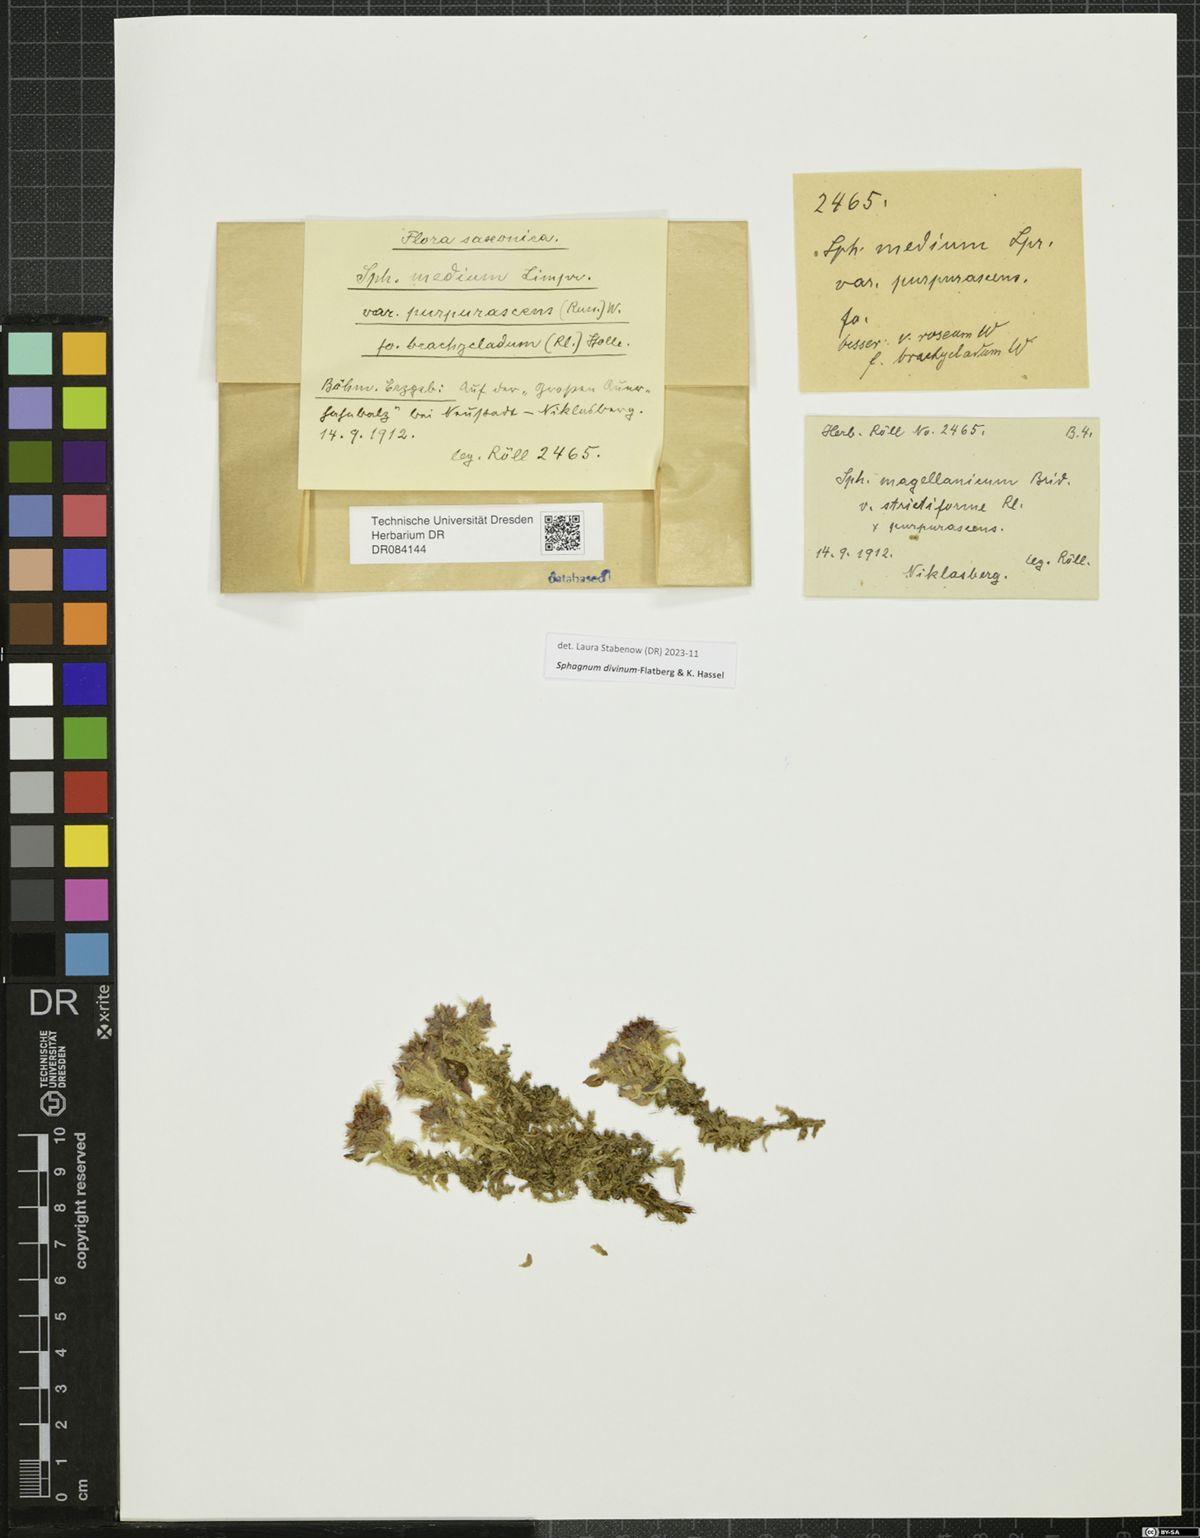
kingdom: Plantae
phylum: Bryophyta
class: Sphagnopsida
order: Sphagnales
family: Sphagnaceae
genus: Sphagnum
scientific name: Sphagnum divinum
